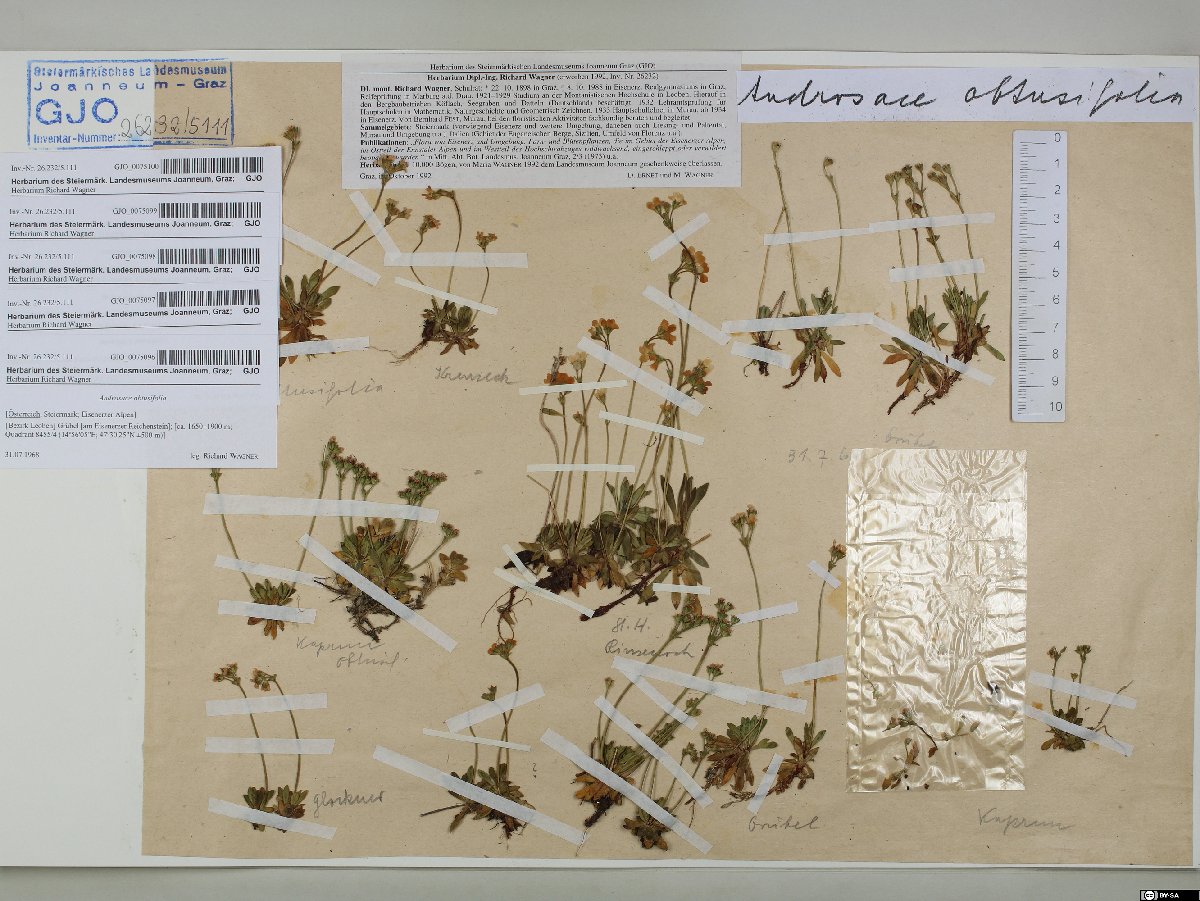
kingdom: Plantae
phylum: Tracheophyta
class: Magnoliopsida
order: Ericales
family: Primulaceae
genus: Androsace
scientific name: Androsace obtusifolia
